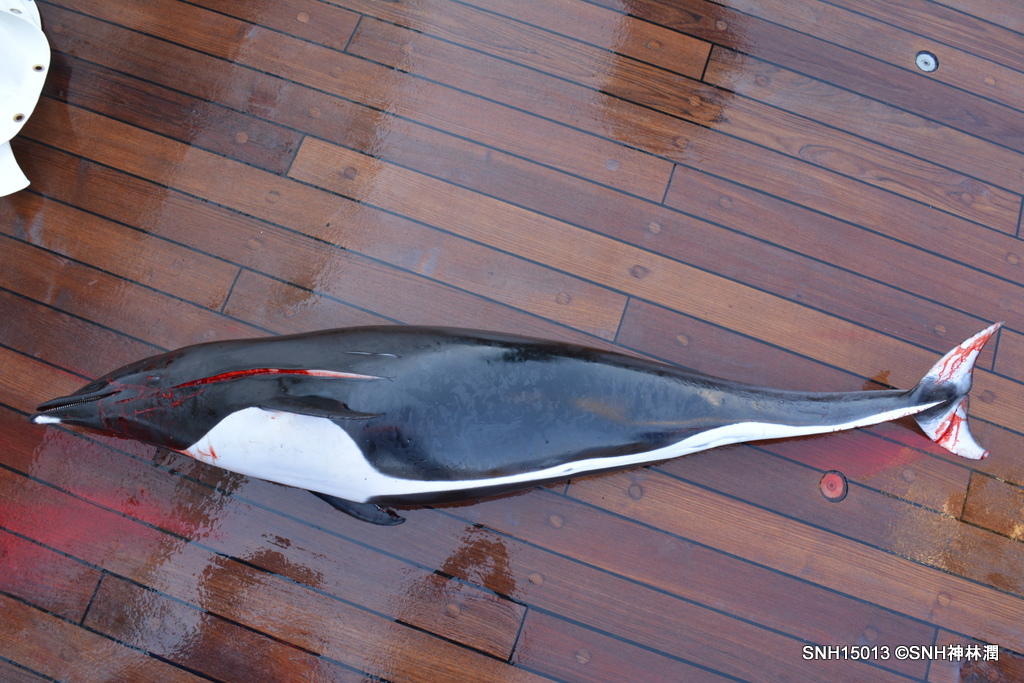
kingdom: Animalia
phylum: Chordata
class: Mammalia
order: Cetacea
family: Delphinidae
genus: Lissodelphis
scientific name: Lissodelphis borealis
